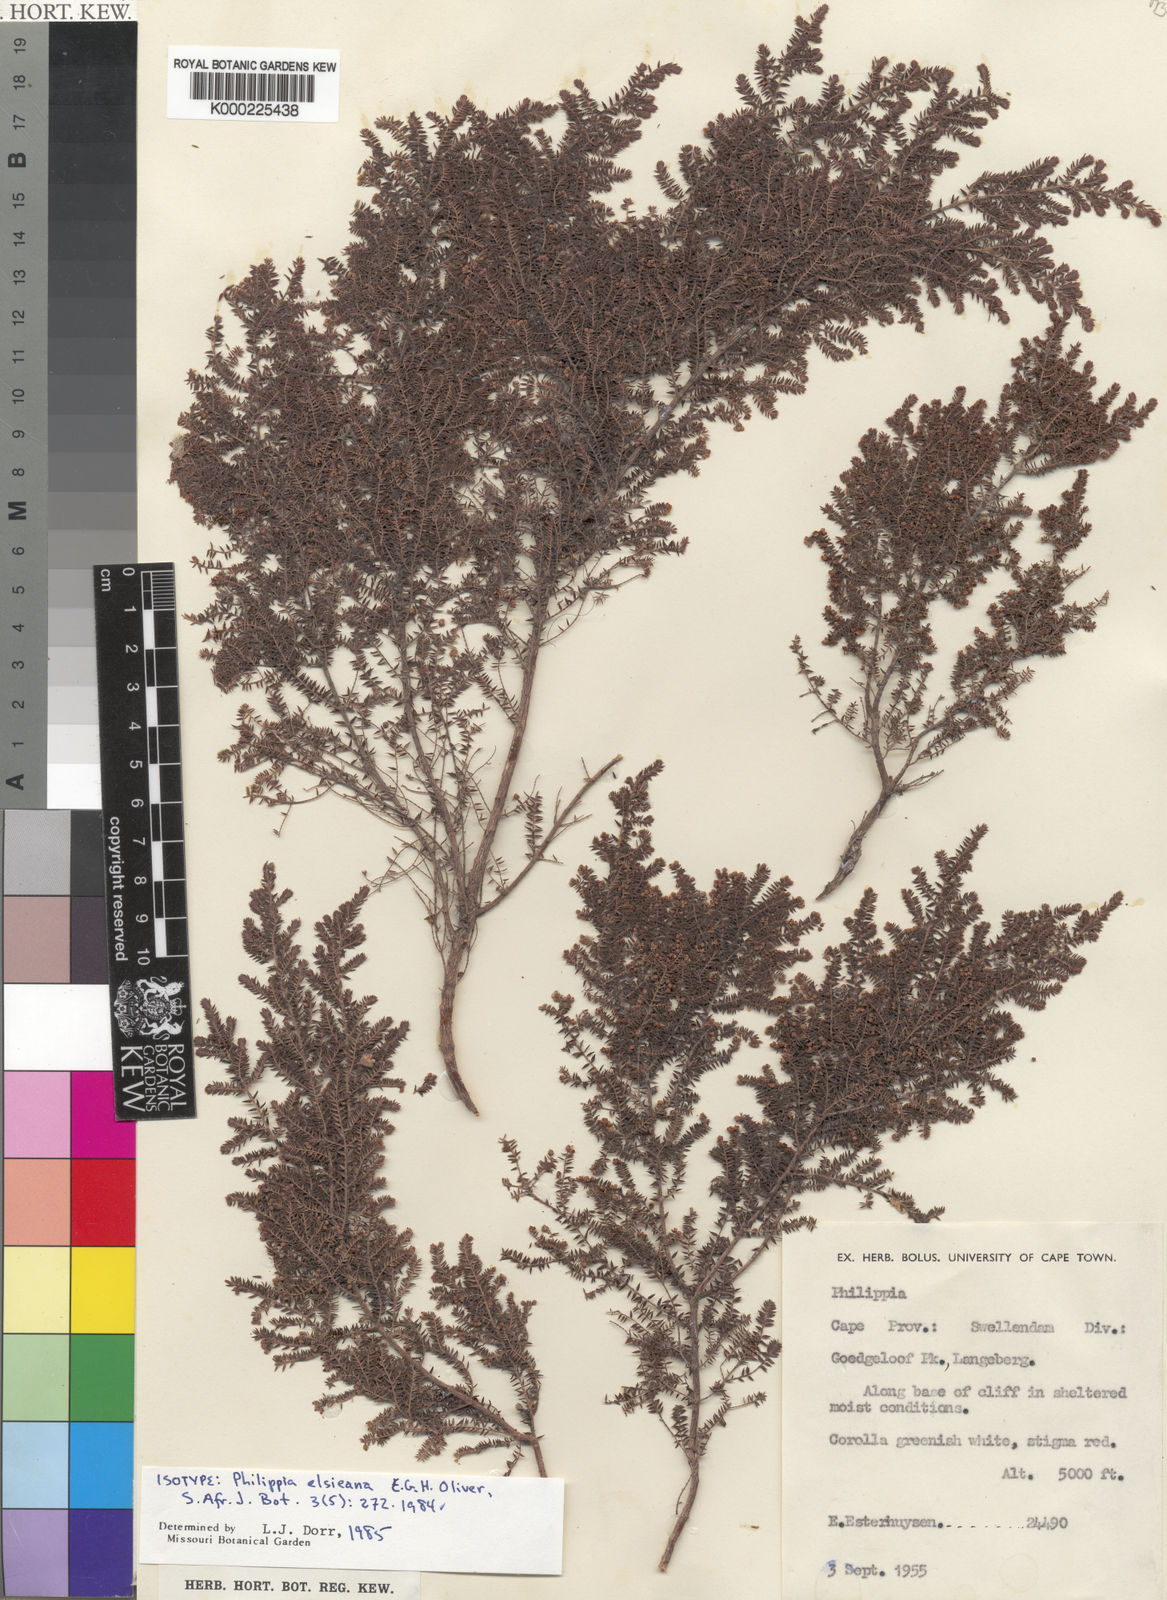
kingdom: Plantae
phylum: Tracheophyta
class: Magnoliopsida
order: Ericales
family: Ericaceae
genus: Erica
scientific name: Erica
